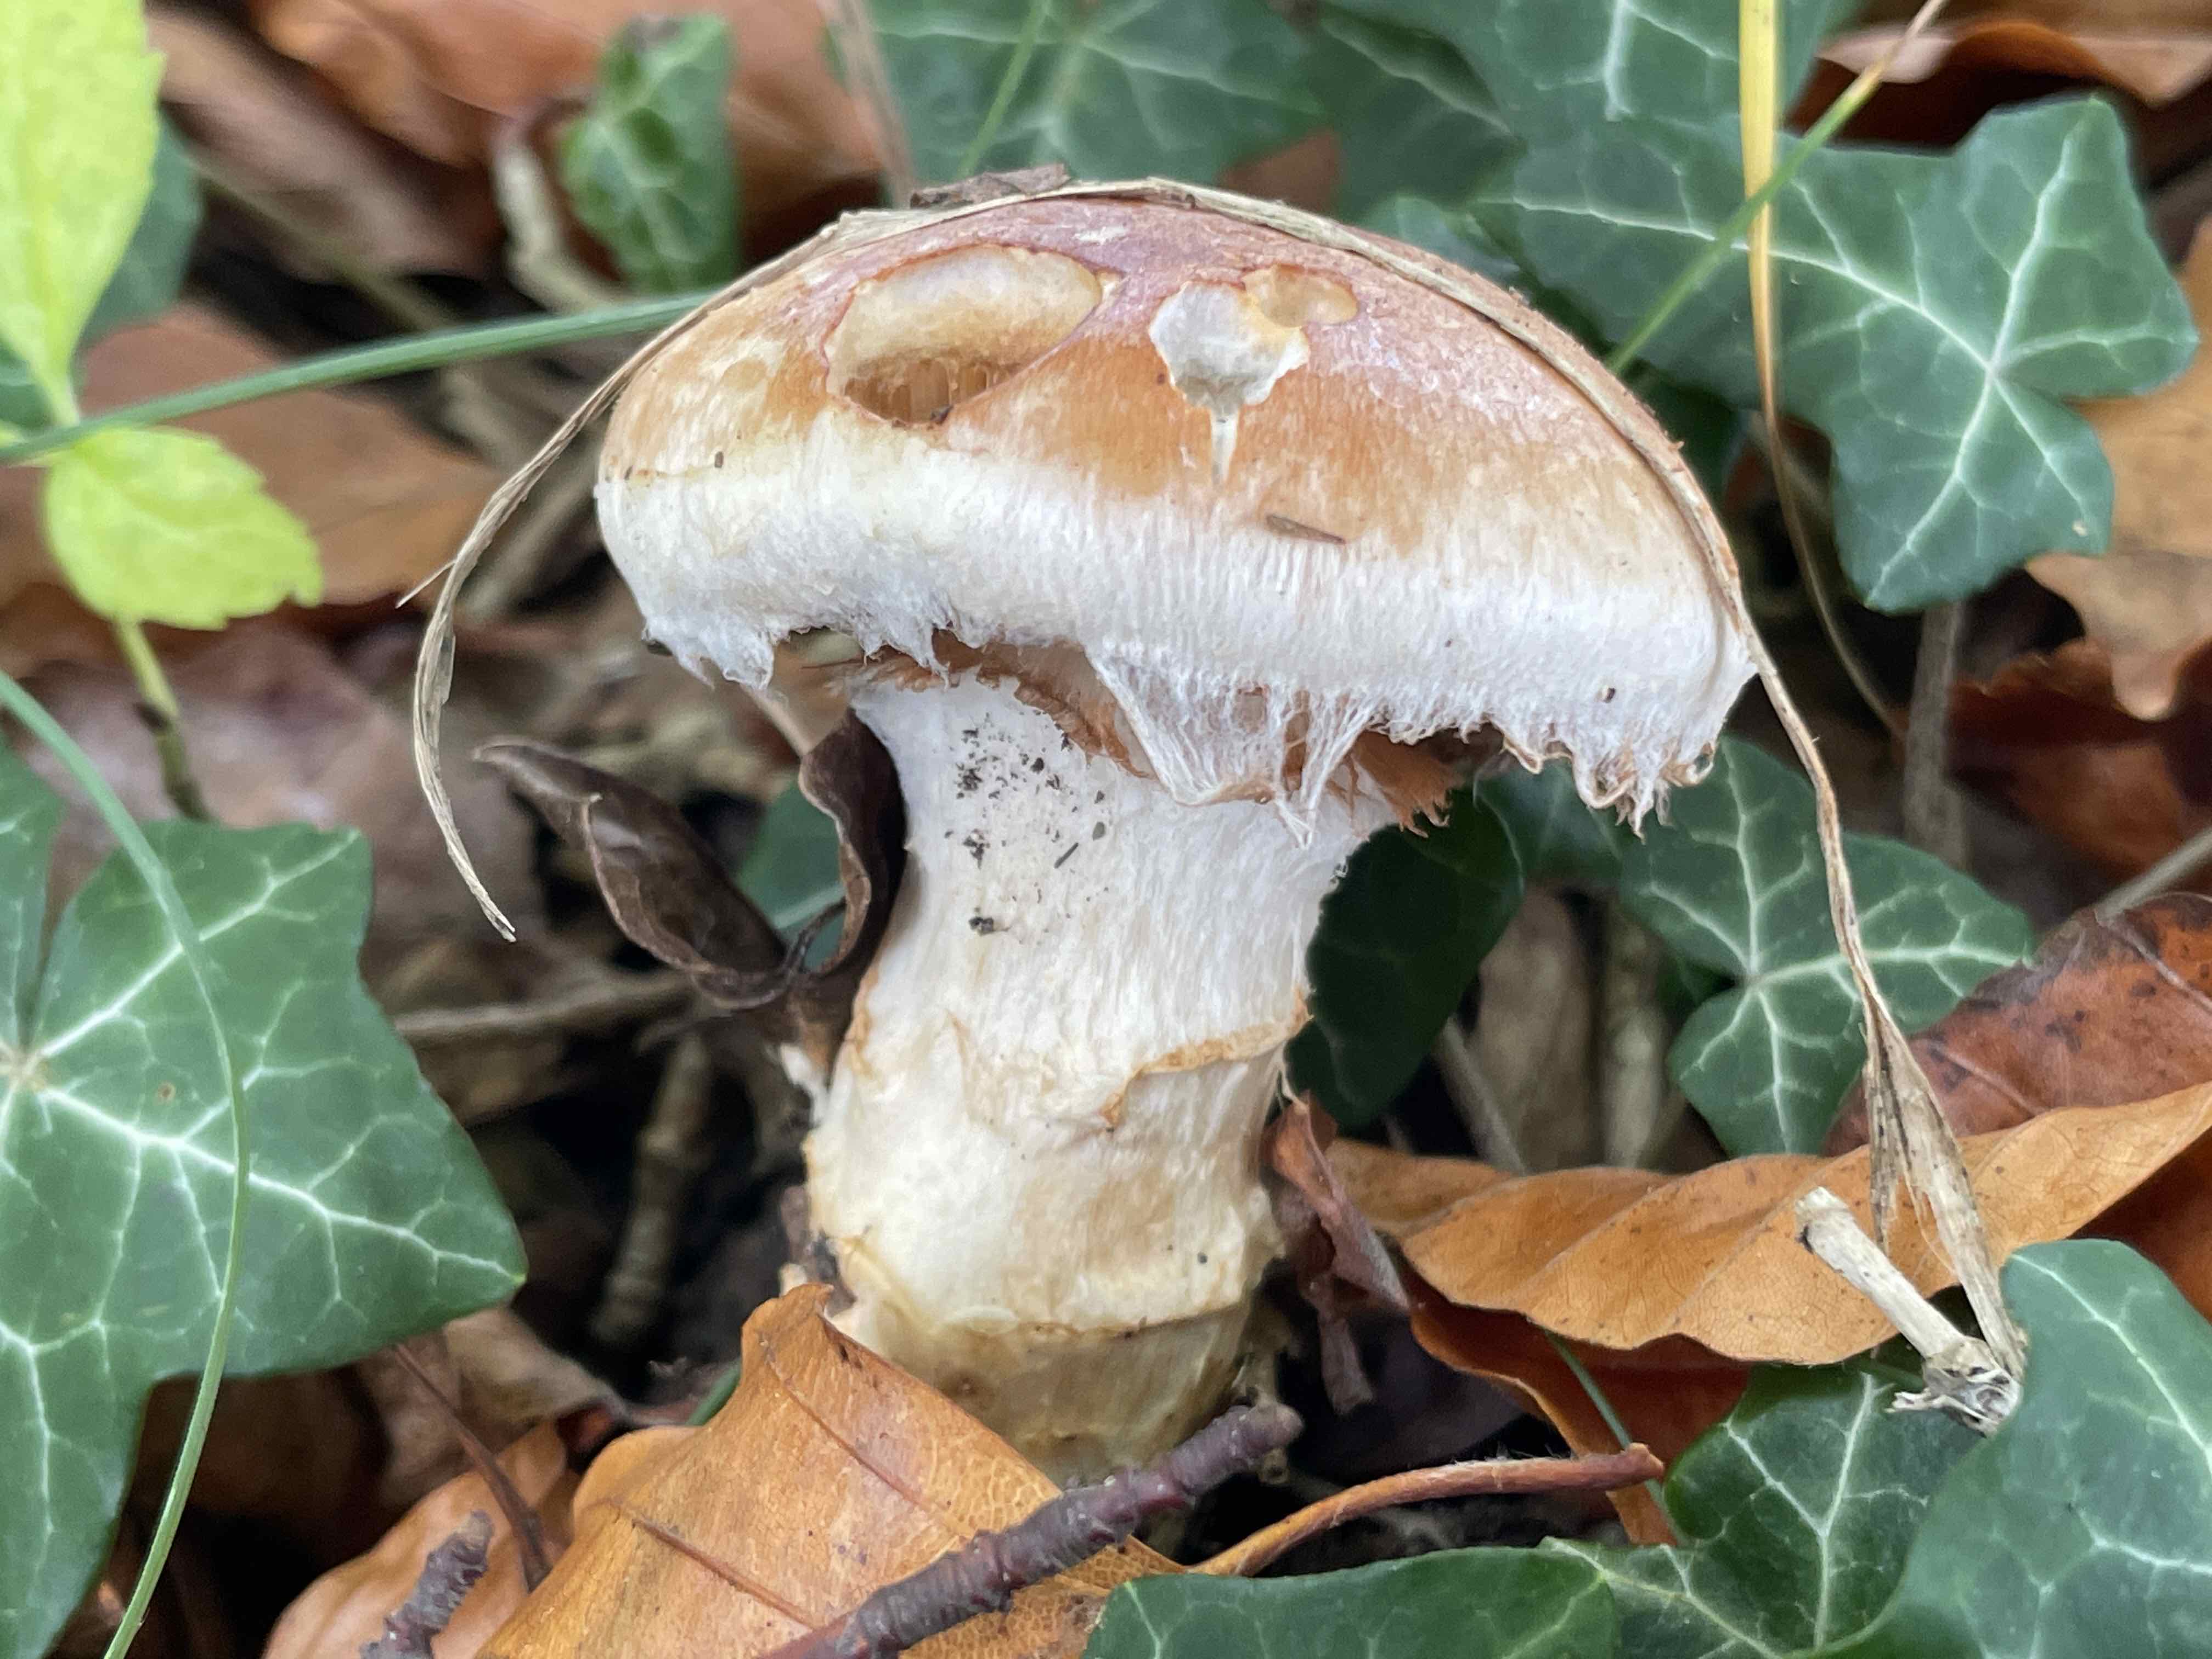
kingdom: Fungi
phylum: Basidiomycota
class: Agaricomycetes
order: Agaricales
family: Cortinariaceae
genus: Phlegmacium
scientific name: Phlegmacium vulpinum
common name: ringbæltet slørhat
